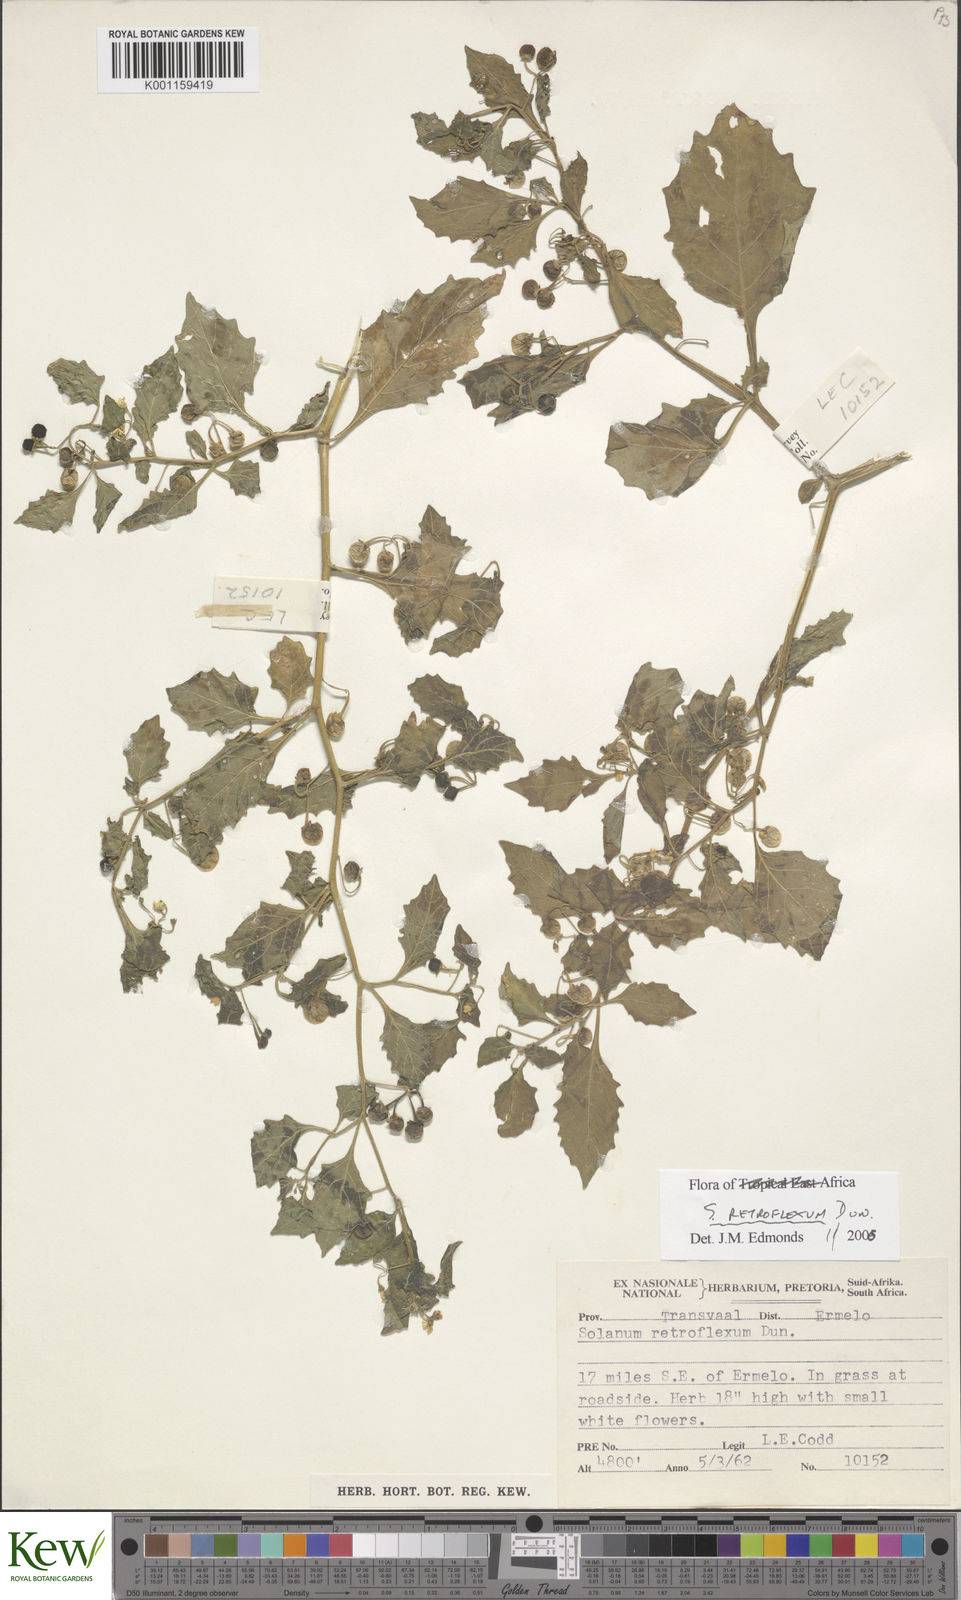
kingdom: Plantae
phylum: Tracheophyta
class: Magnoliopsida
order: Solanales
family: Solanaceae
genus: Solanum
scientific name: Solanum retroflexum
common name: Wonderberry
